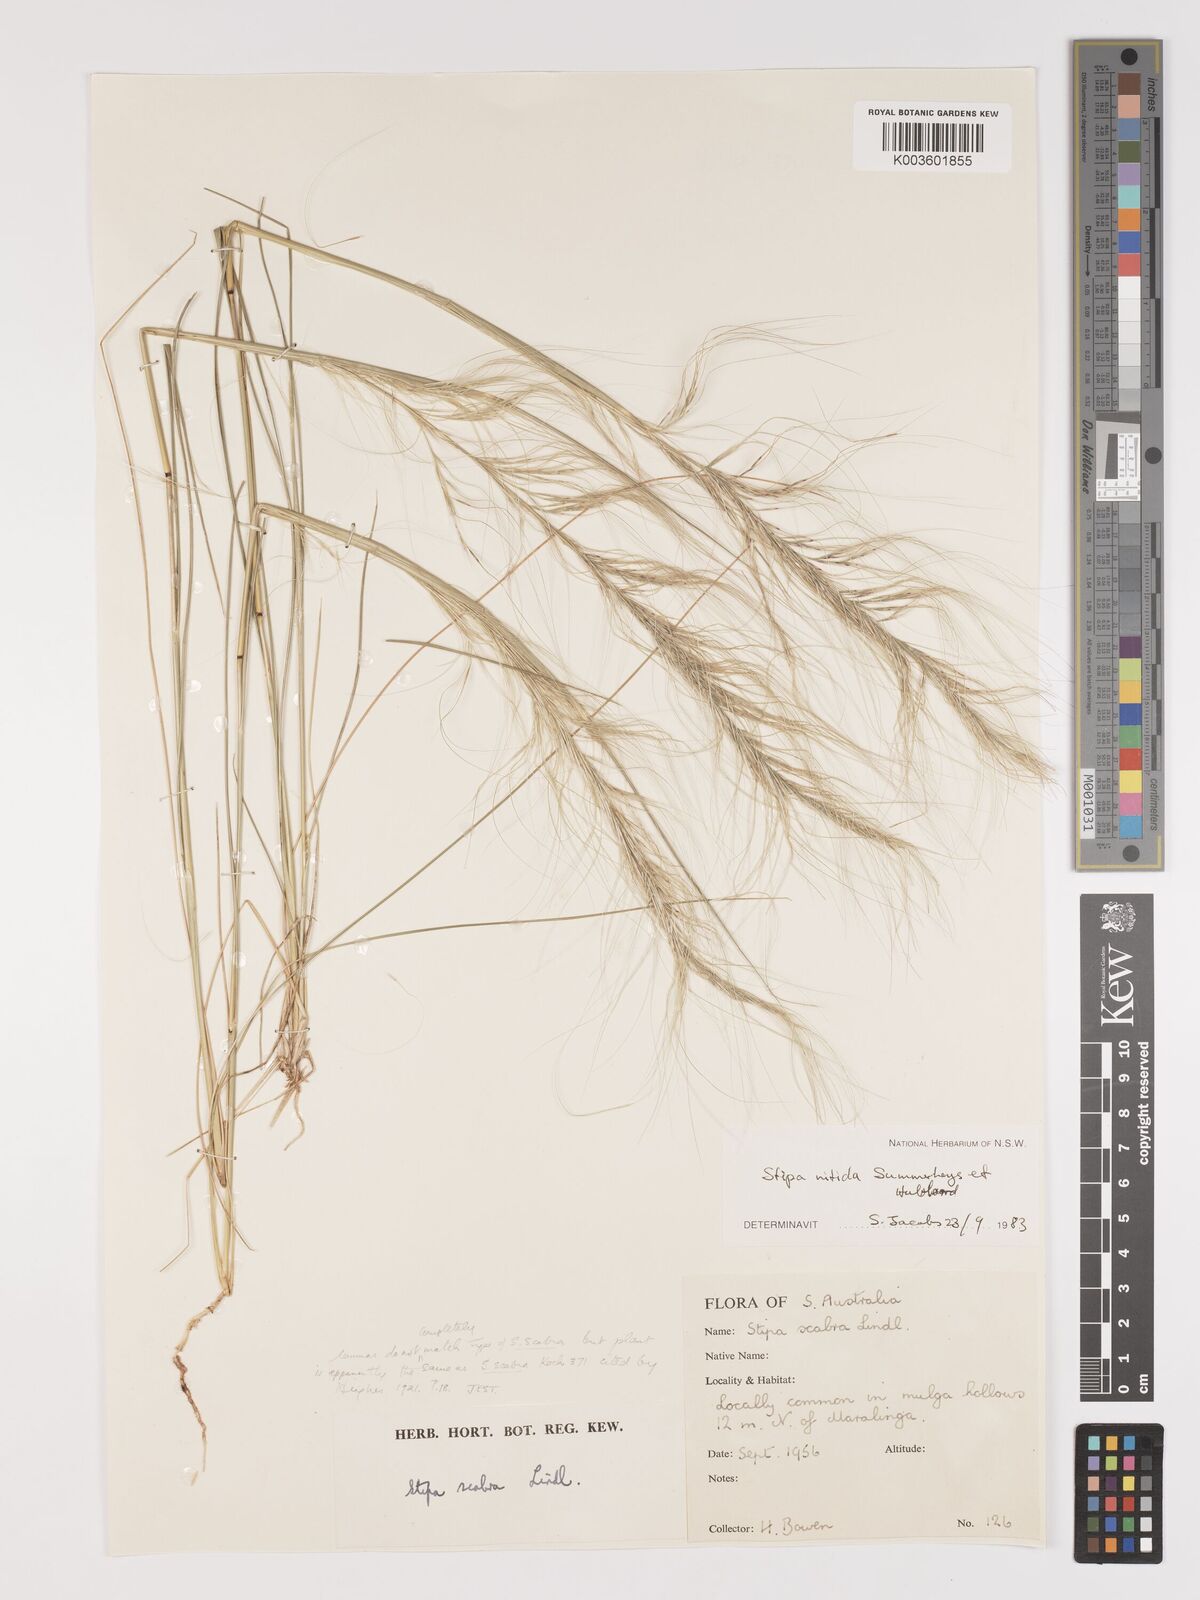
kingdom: Plantae
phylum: Tracheophyta
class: Liliopsida
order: Poales
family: Poaceae
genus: Austrostipa
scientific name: Austrostipa nitida
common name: Balcarra grass
